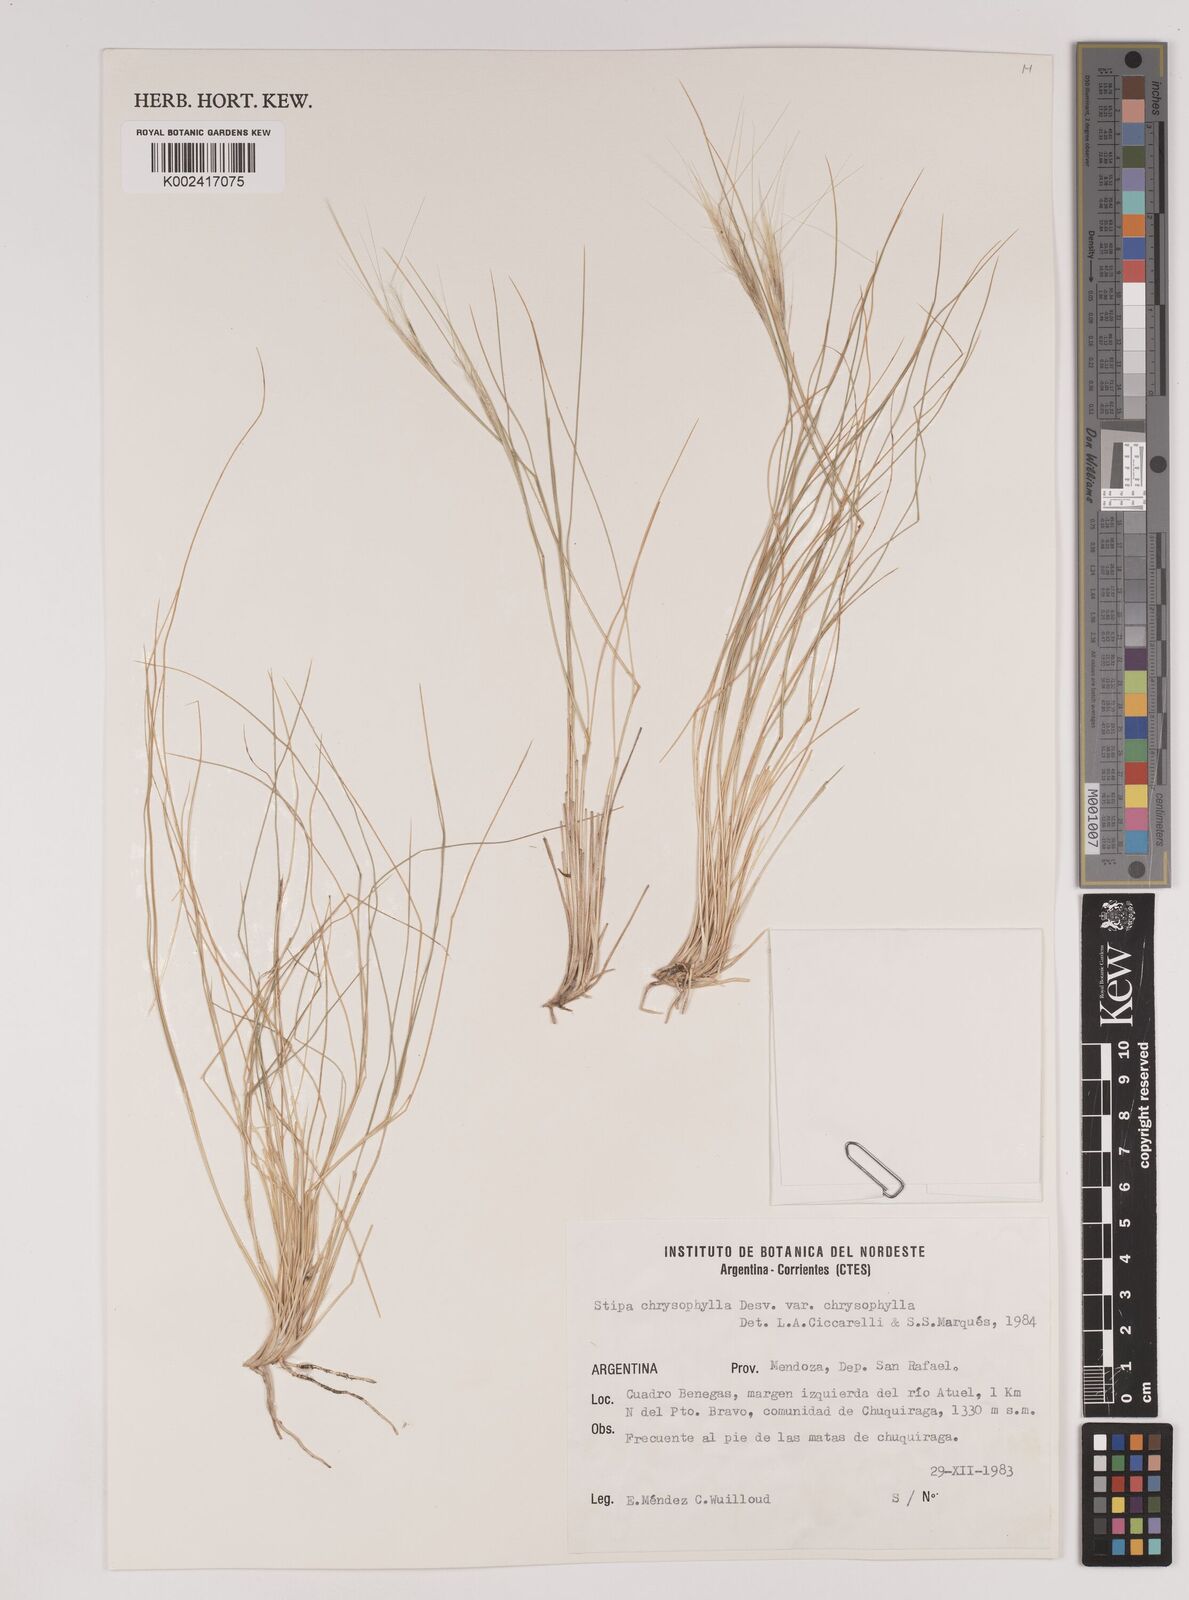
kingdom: Plantae
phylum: Tracheophyta
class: Liliopsida
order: Poales
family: Poaceae
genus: Pappostipa
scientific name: Pappostipa chrysophylla
